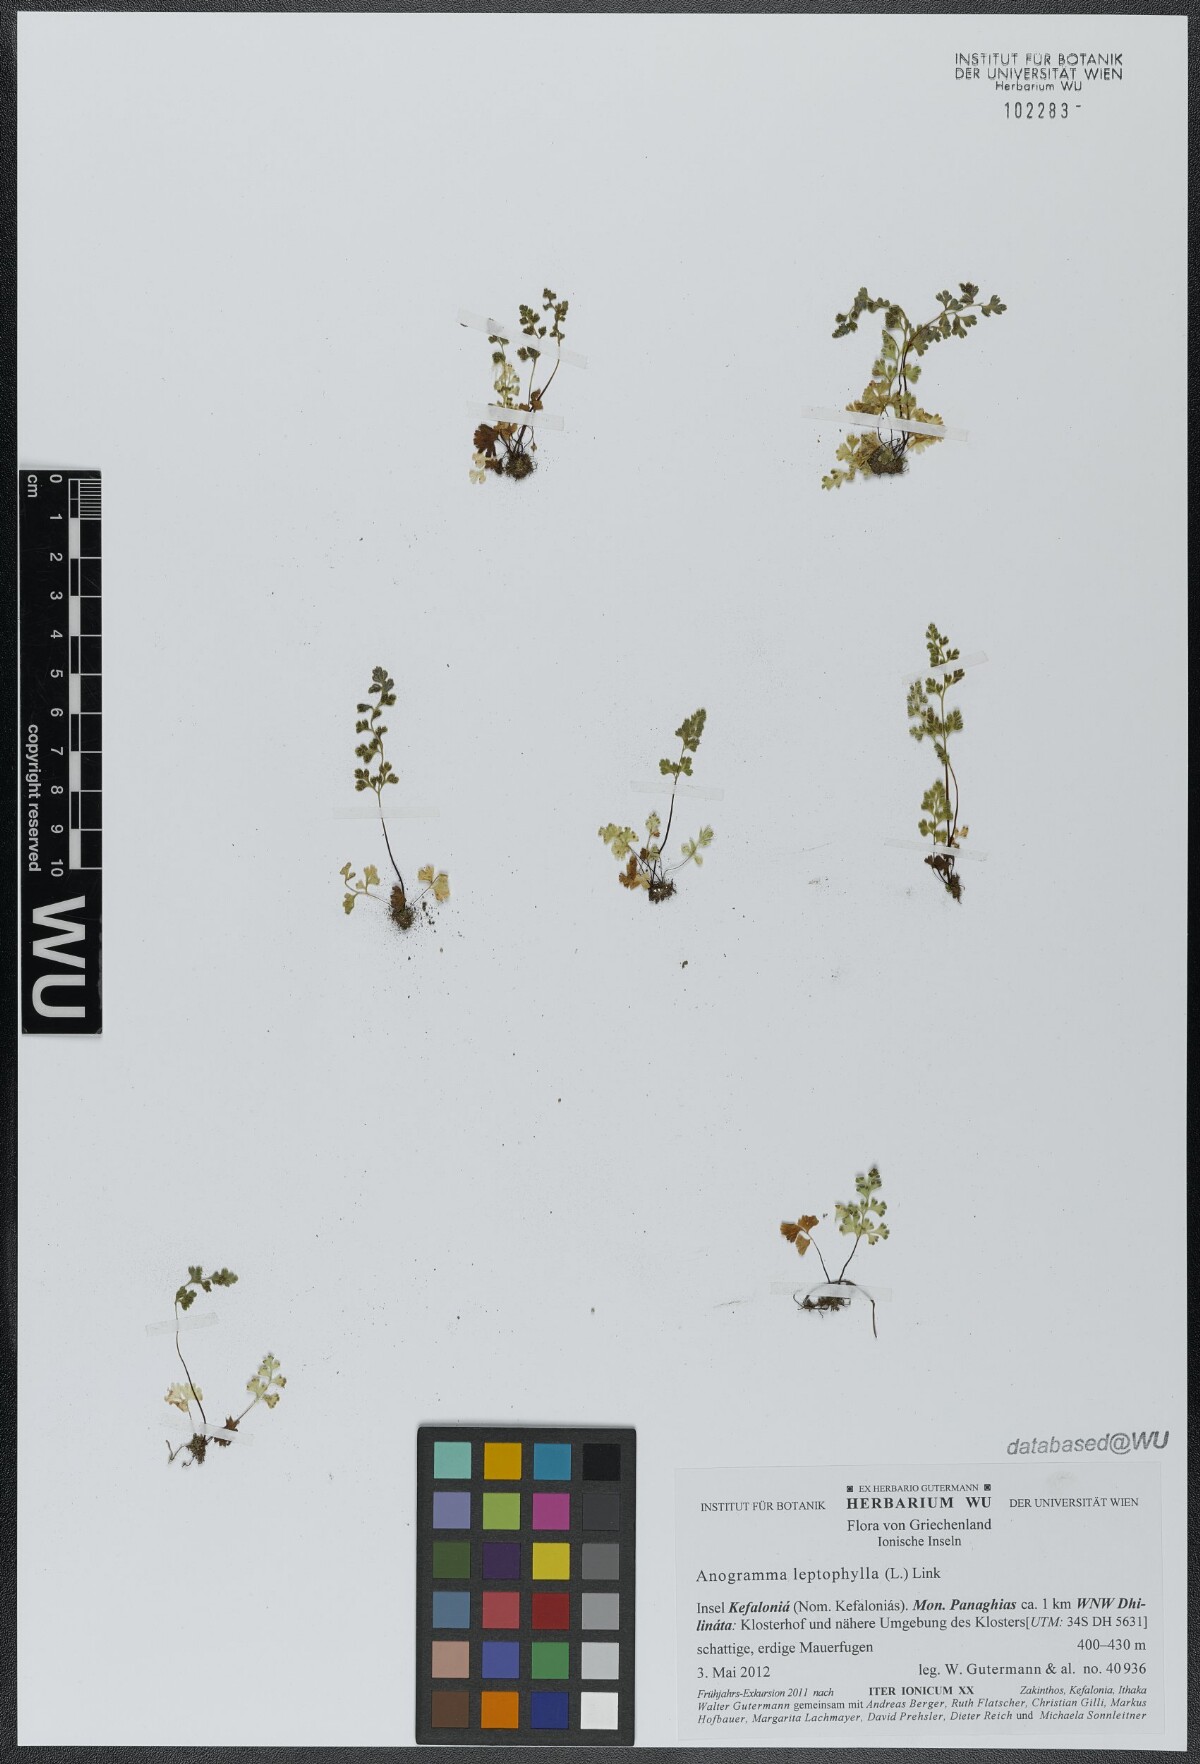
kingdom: Plantae
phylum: Tracheophyta
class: Polypodiopsida
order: Polypodiales
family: Pteridaceae
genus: Anogramma
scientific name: Anogramma leptophylla
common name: Jersey fern
